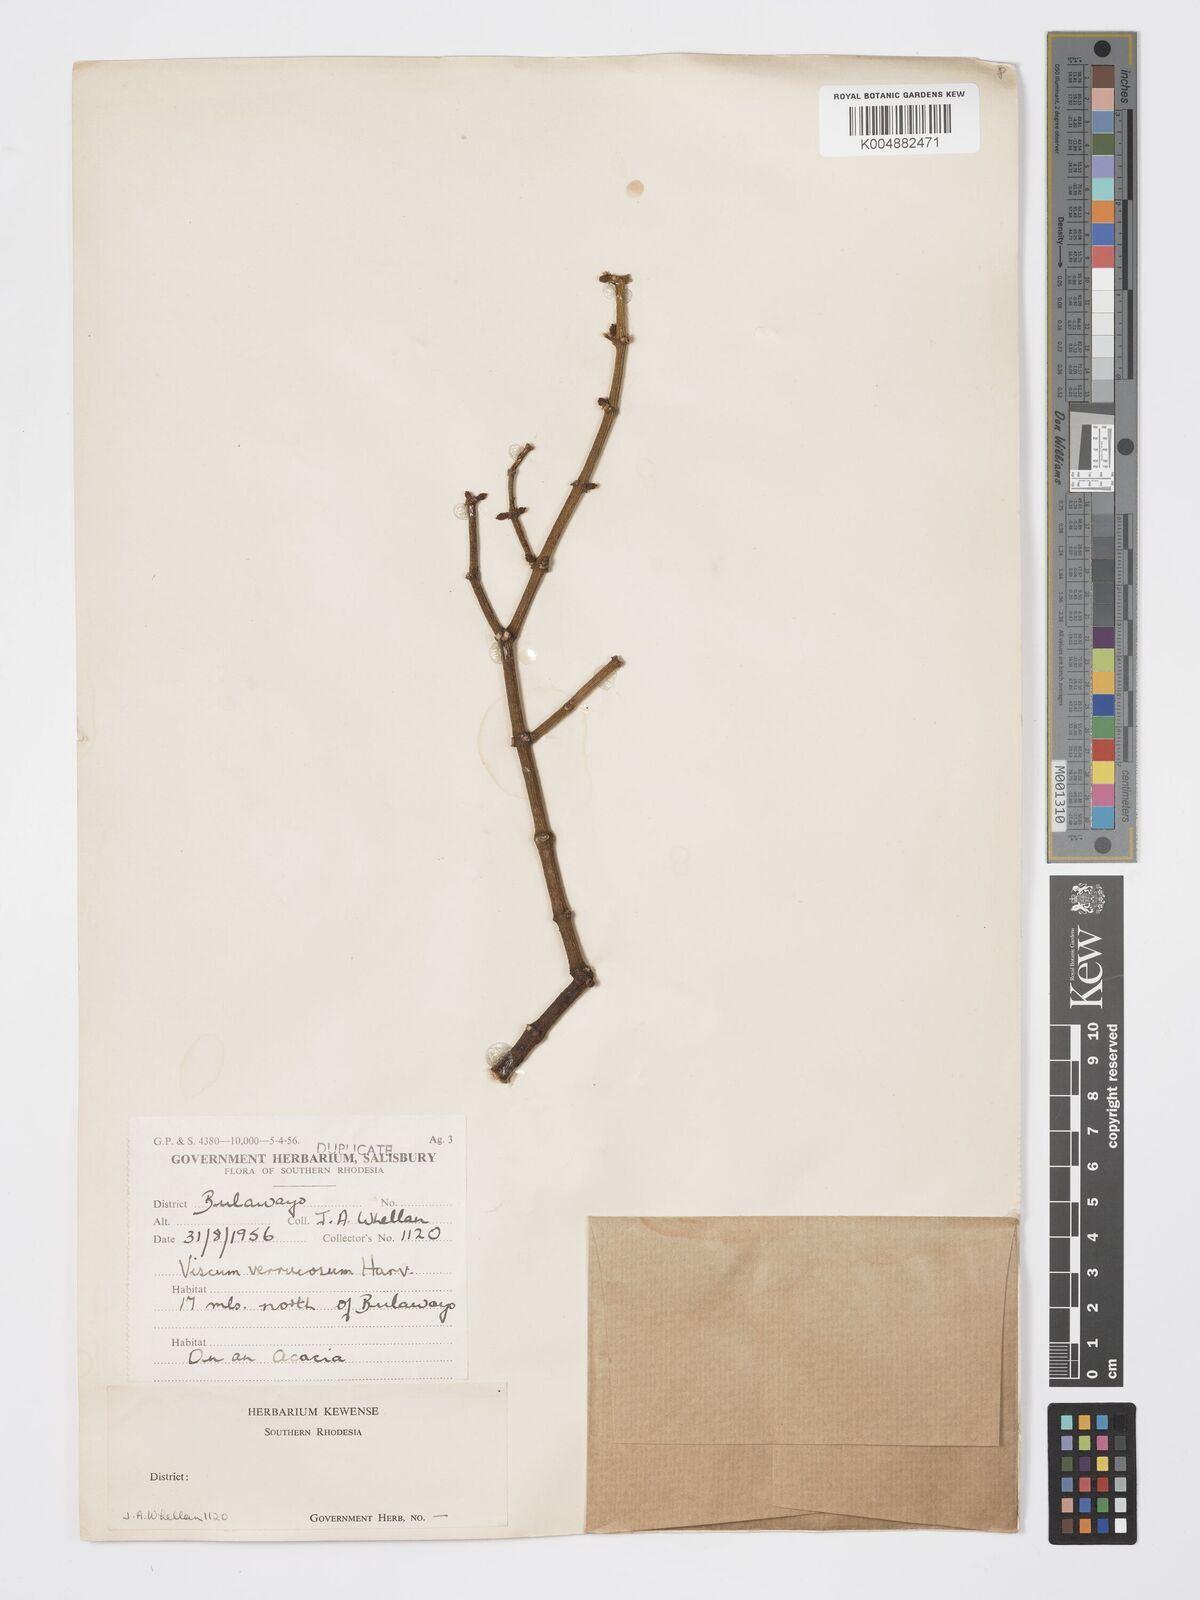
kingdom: Plantae
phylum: Tracheophyta
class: Magnoliopsida
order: Santalales
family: Viscaceae
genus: Viscum
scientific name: Viscum verrucosum
